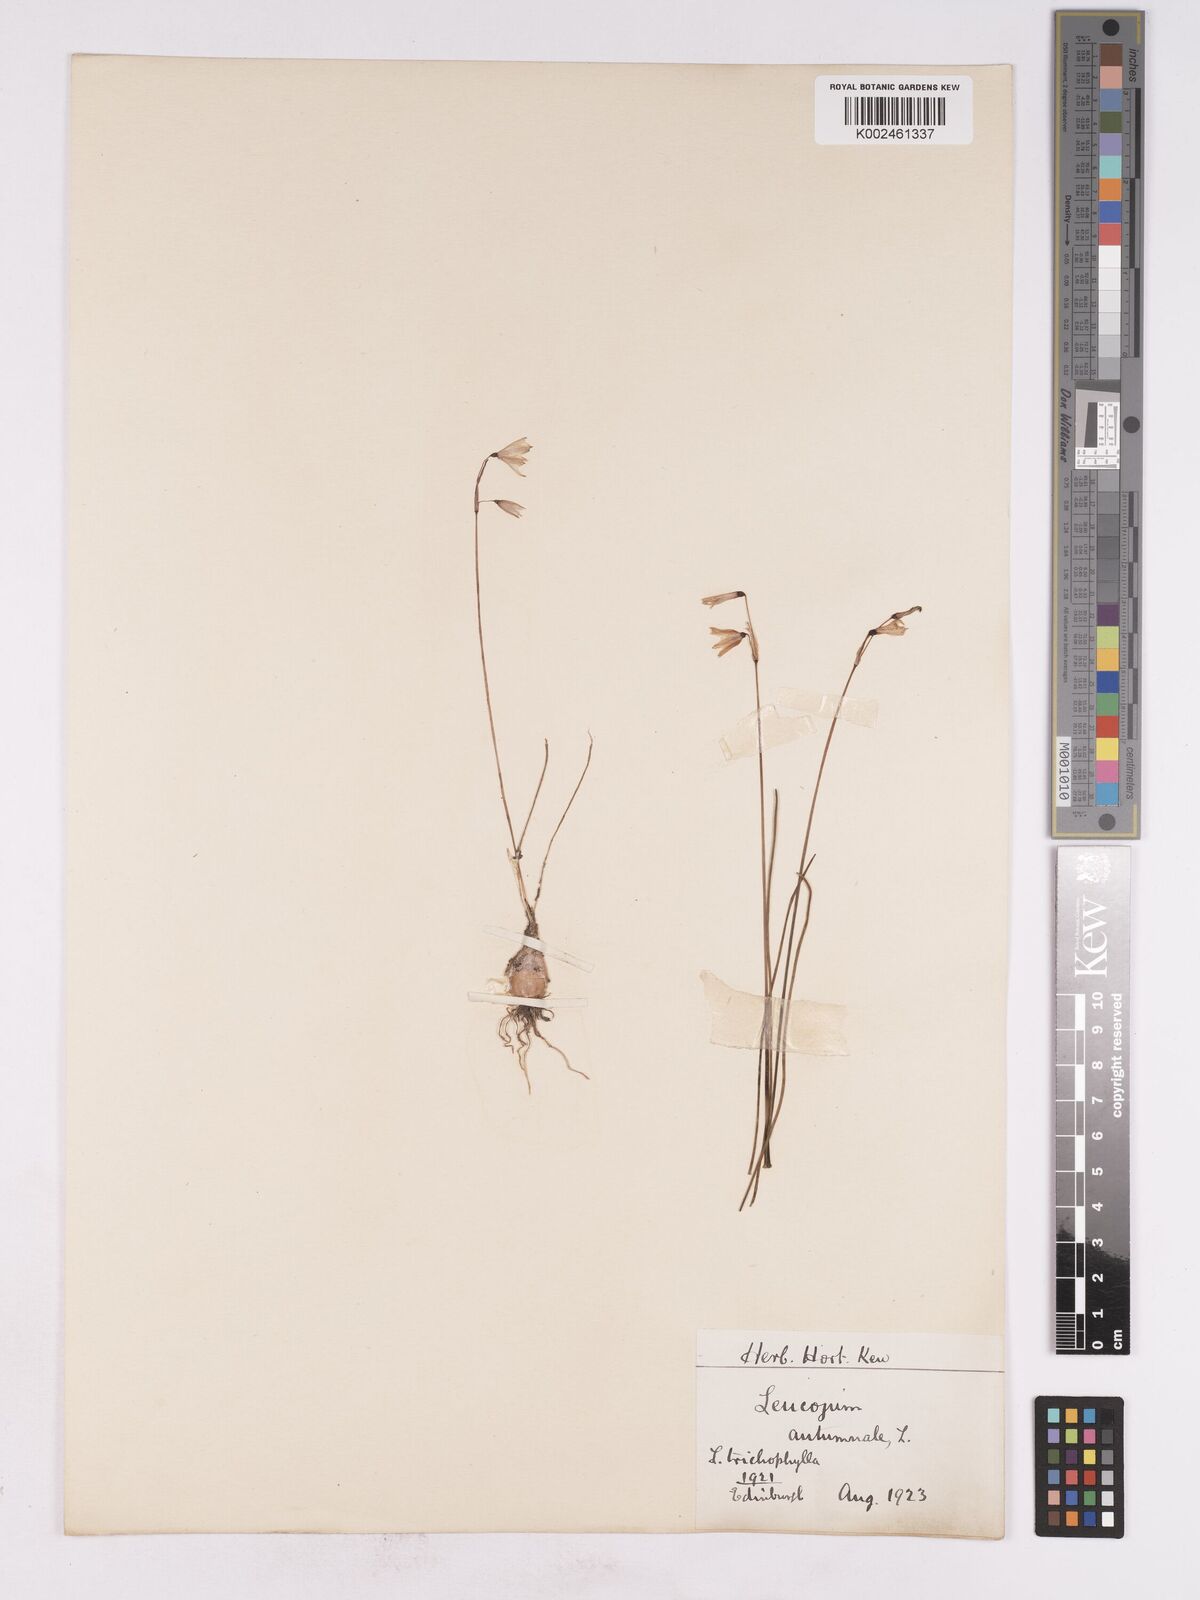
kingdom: Plantae
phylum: Tracheophyta
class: Liliopsida
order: Asparagales
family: Amaryllidaceae
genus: Acis
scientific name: Acis autumnalis
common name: Autumn snowflake
